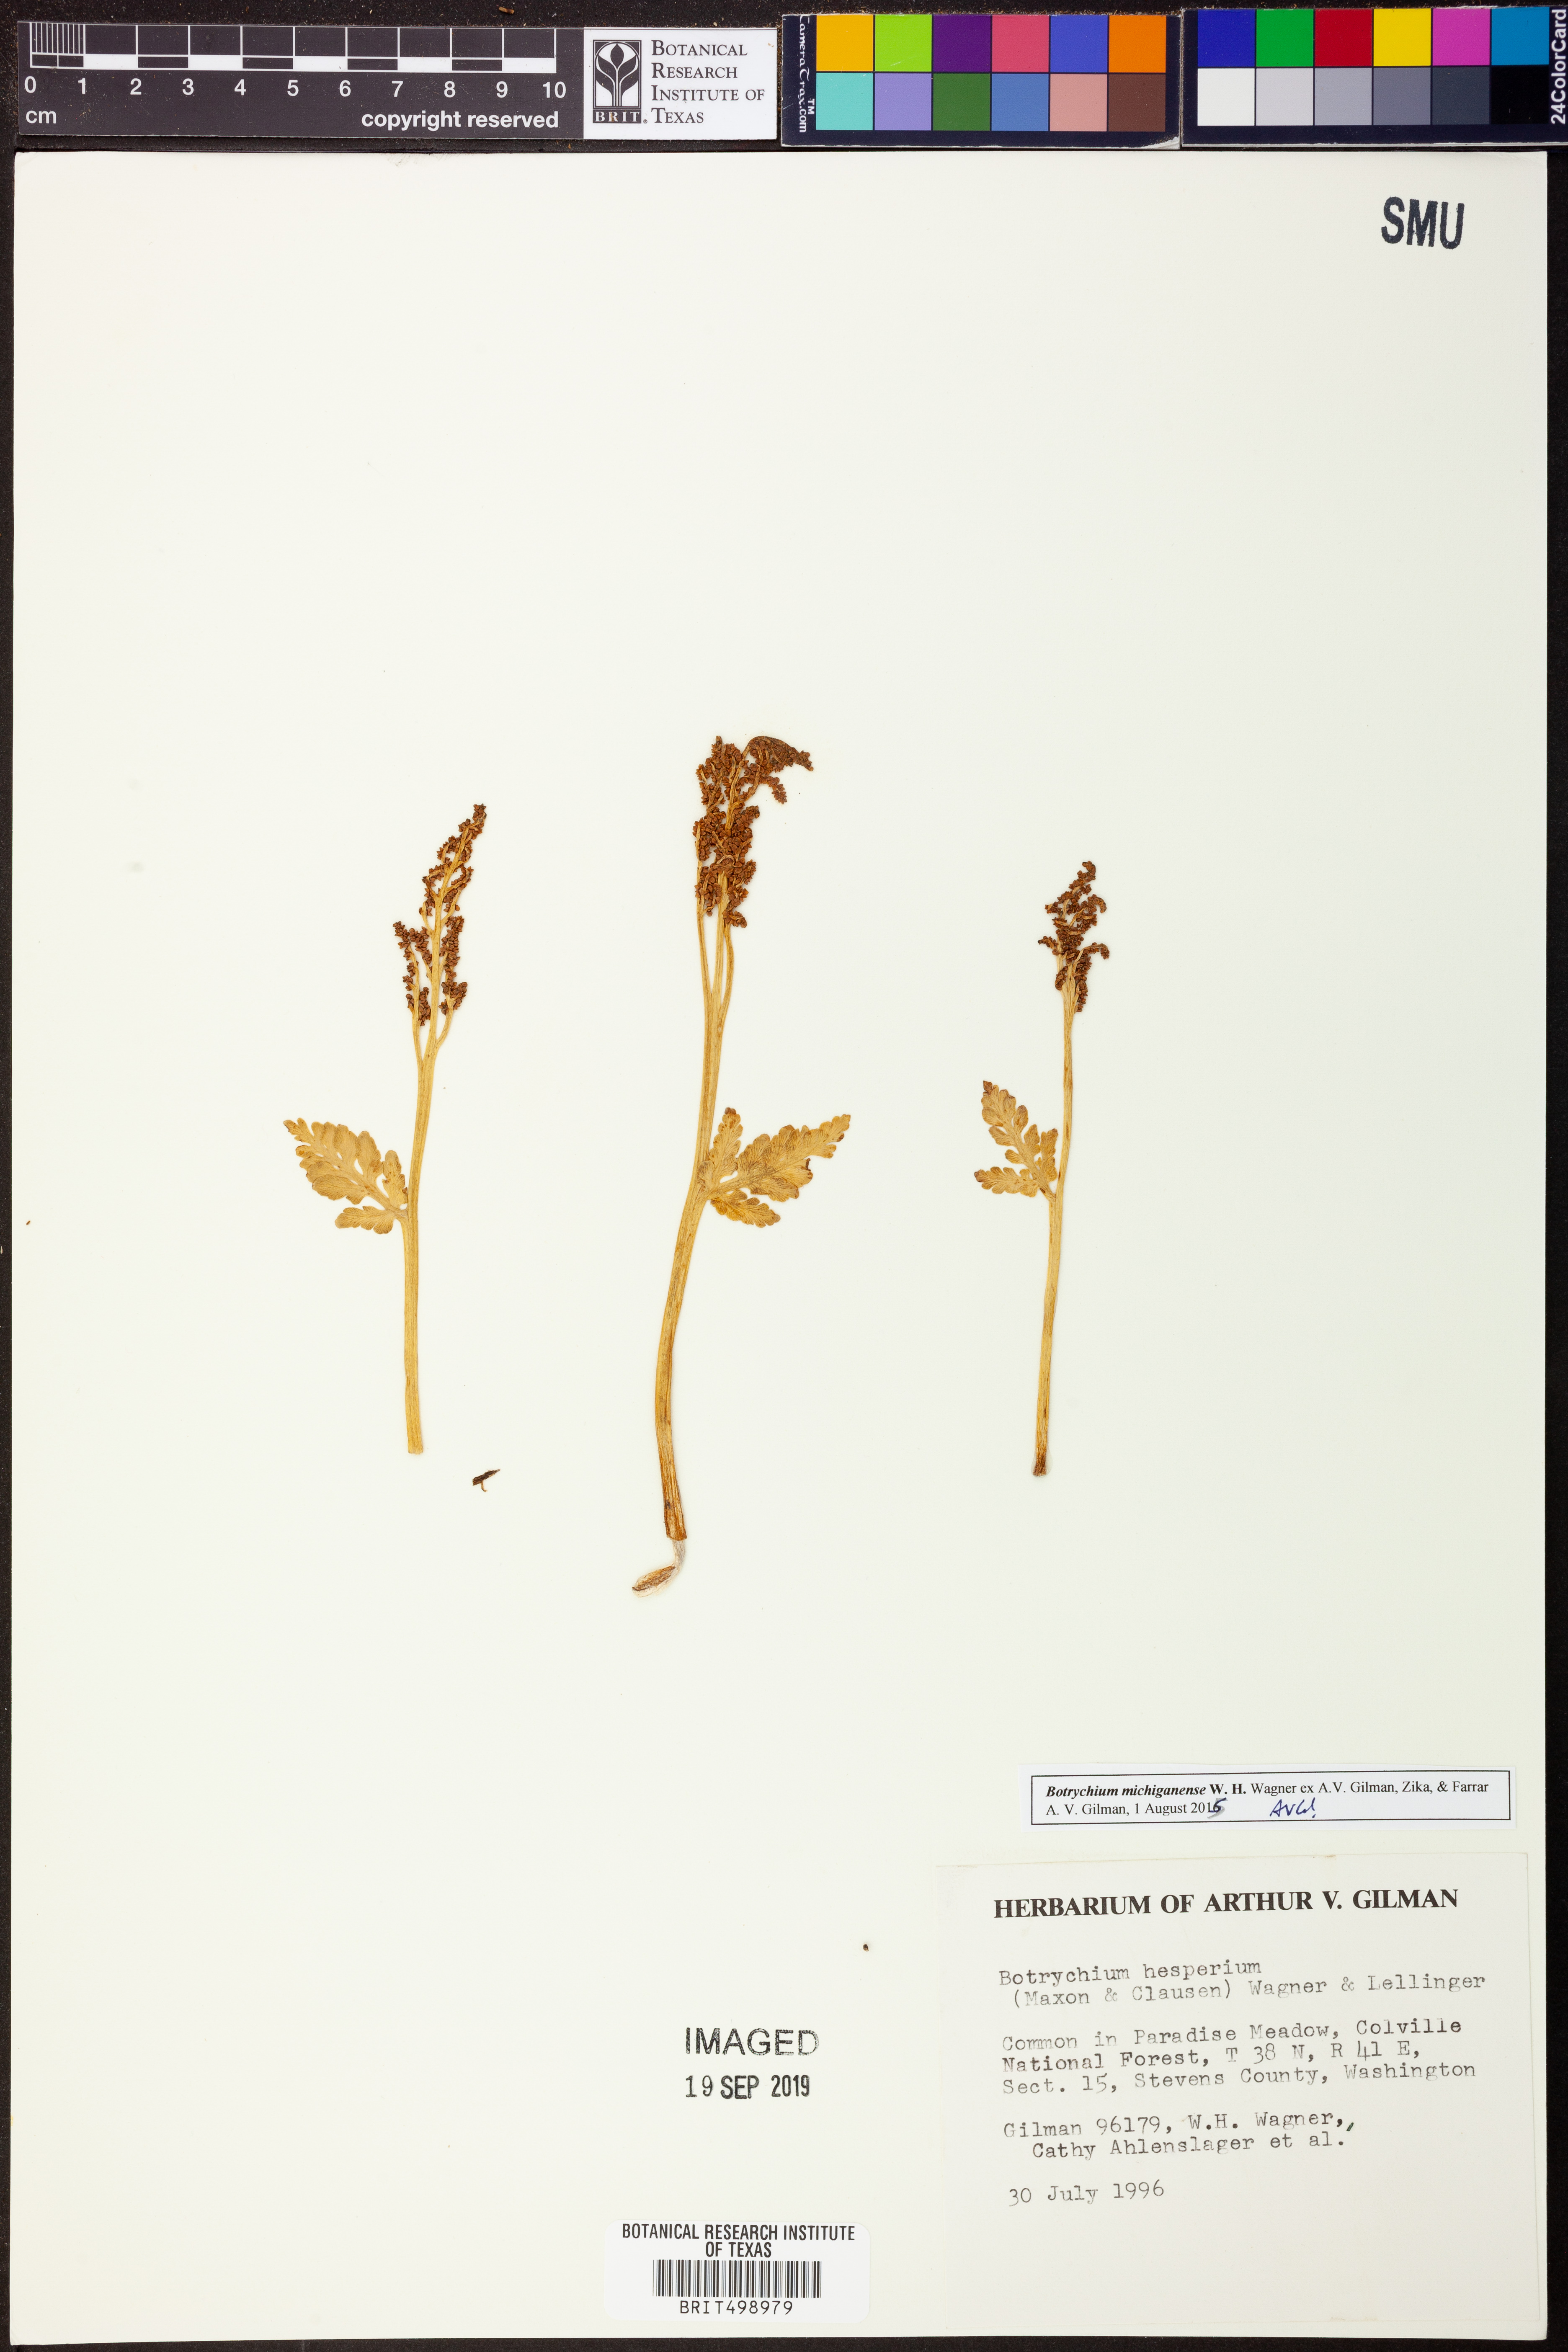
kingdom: Plantae
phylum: Tracheophyta
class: Polypodiopsida
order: Ophioglossales
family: Ophioglossaceae
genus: Botrychium
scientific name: Botrychium michiganense
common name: Michigan moonwort
